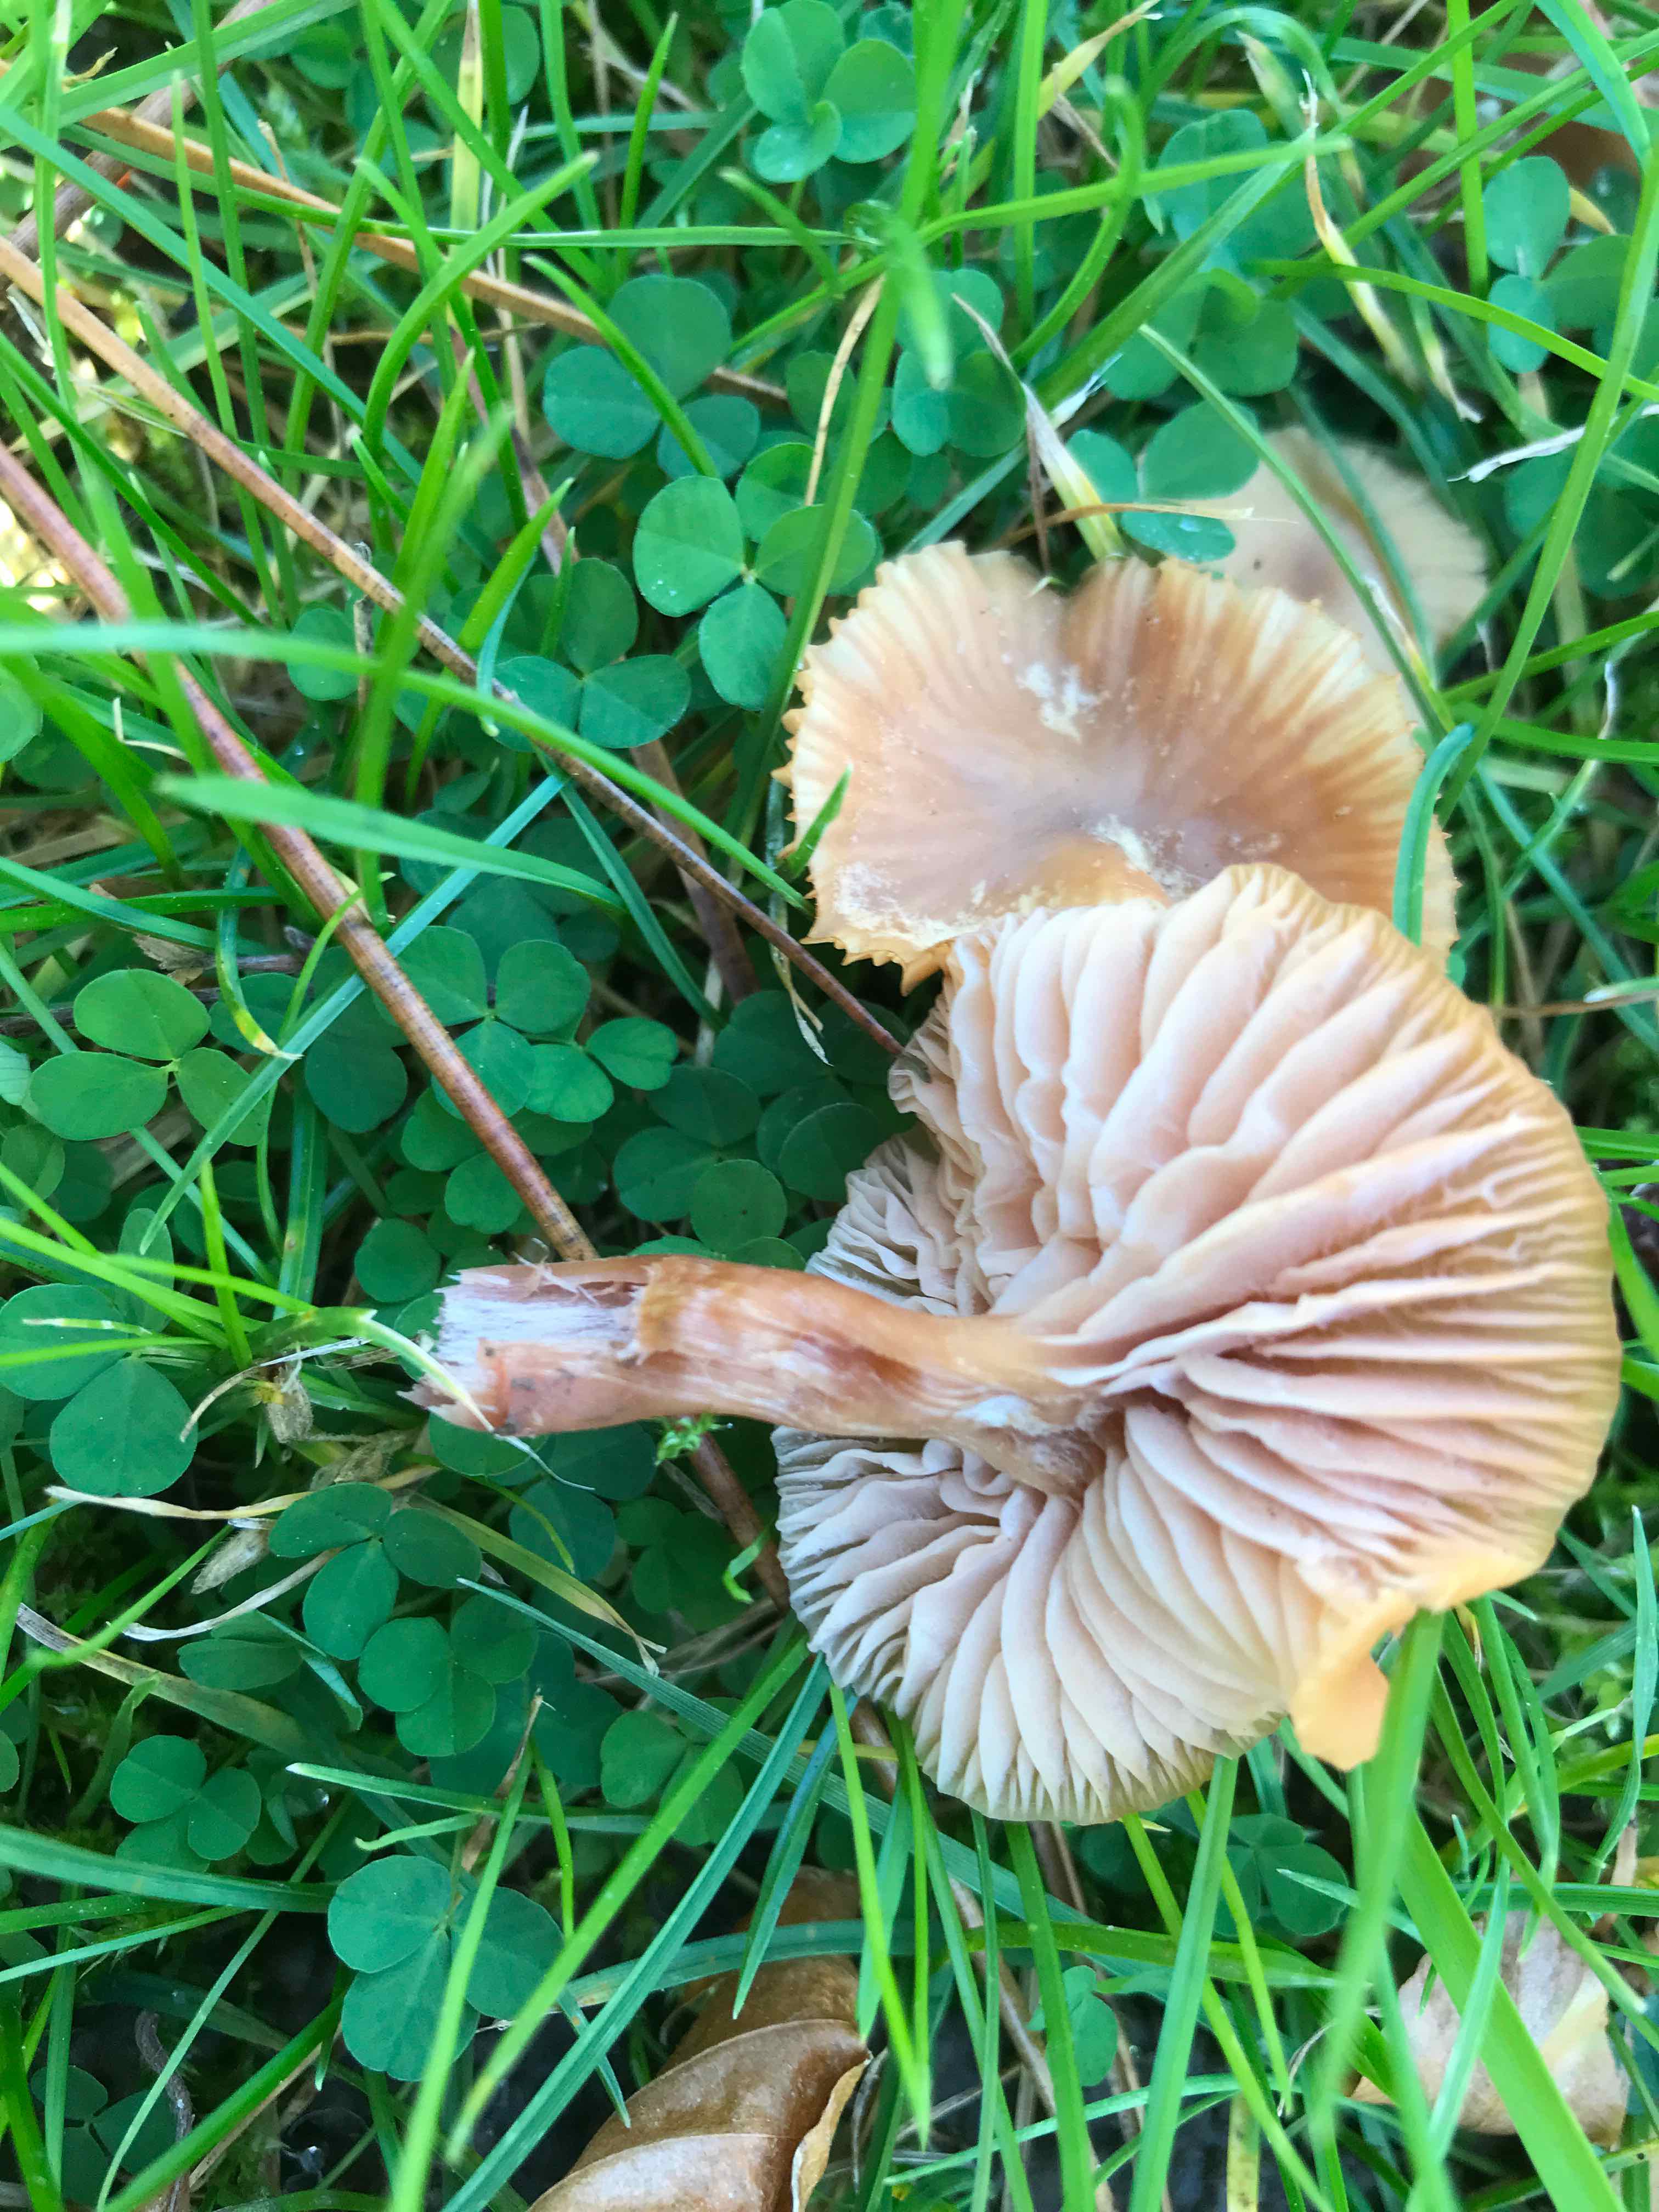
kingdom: Fungi
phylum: Basidiomycota
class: Agaricomycetes
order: Agaricales
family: Hydnangiaceae
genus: Laccaria
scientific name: Laccaria laccata
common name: rød ametysthat
